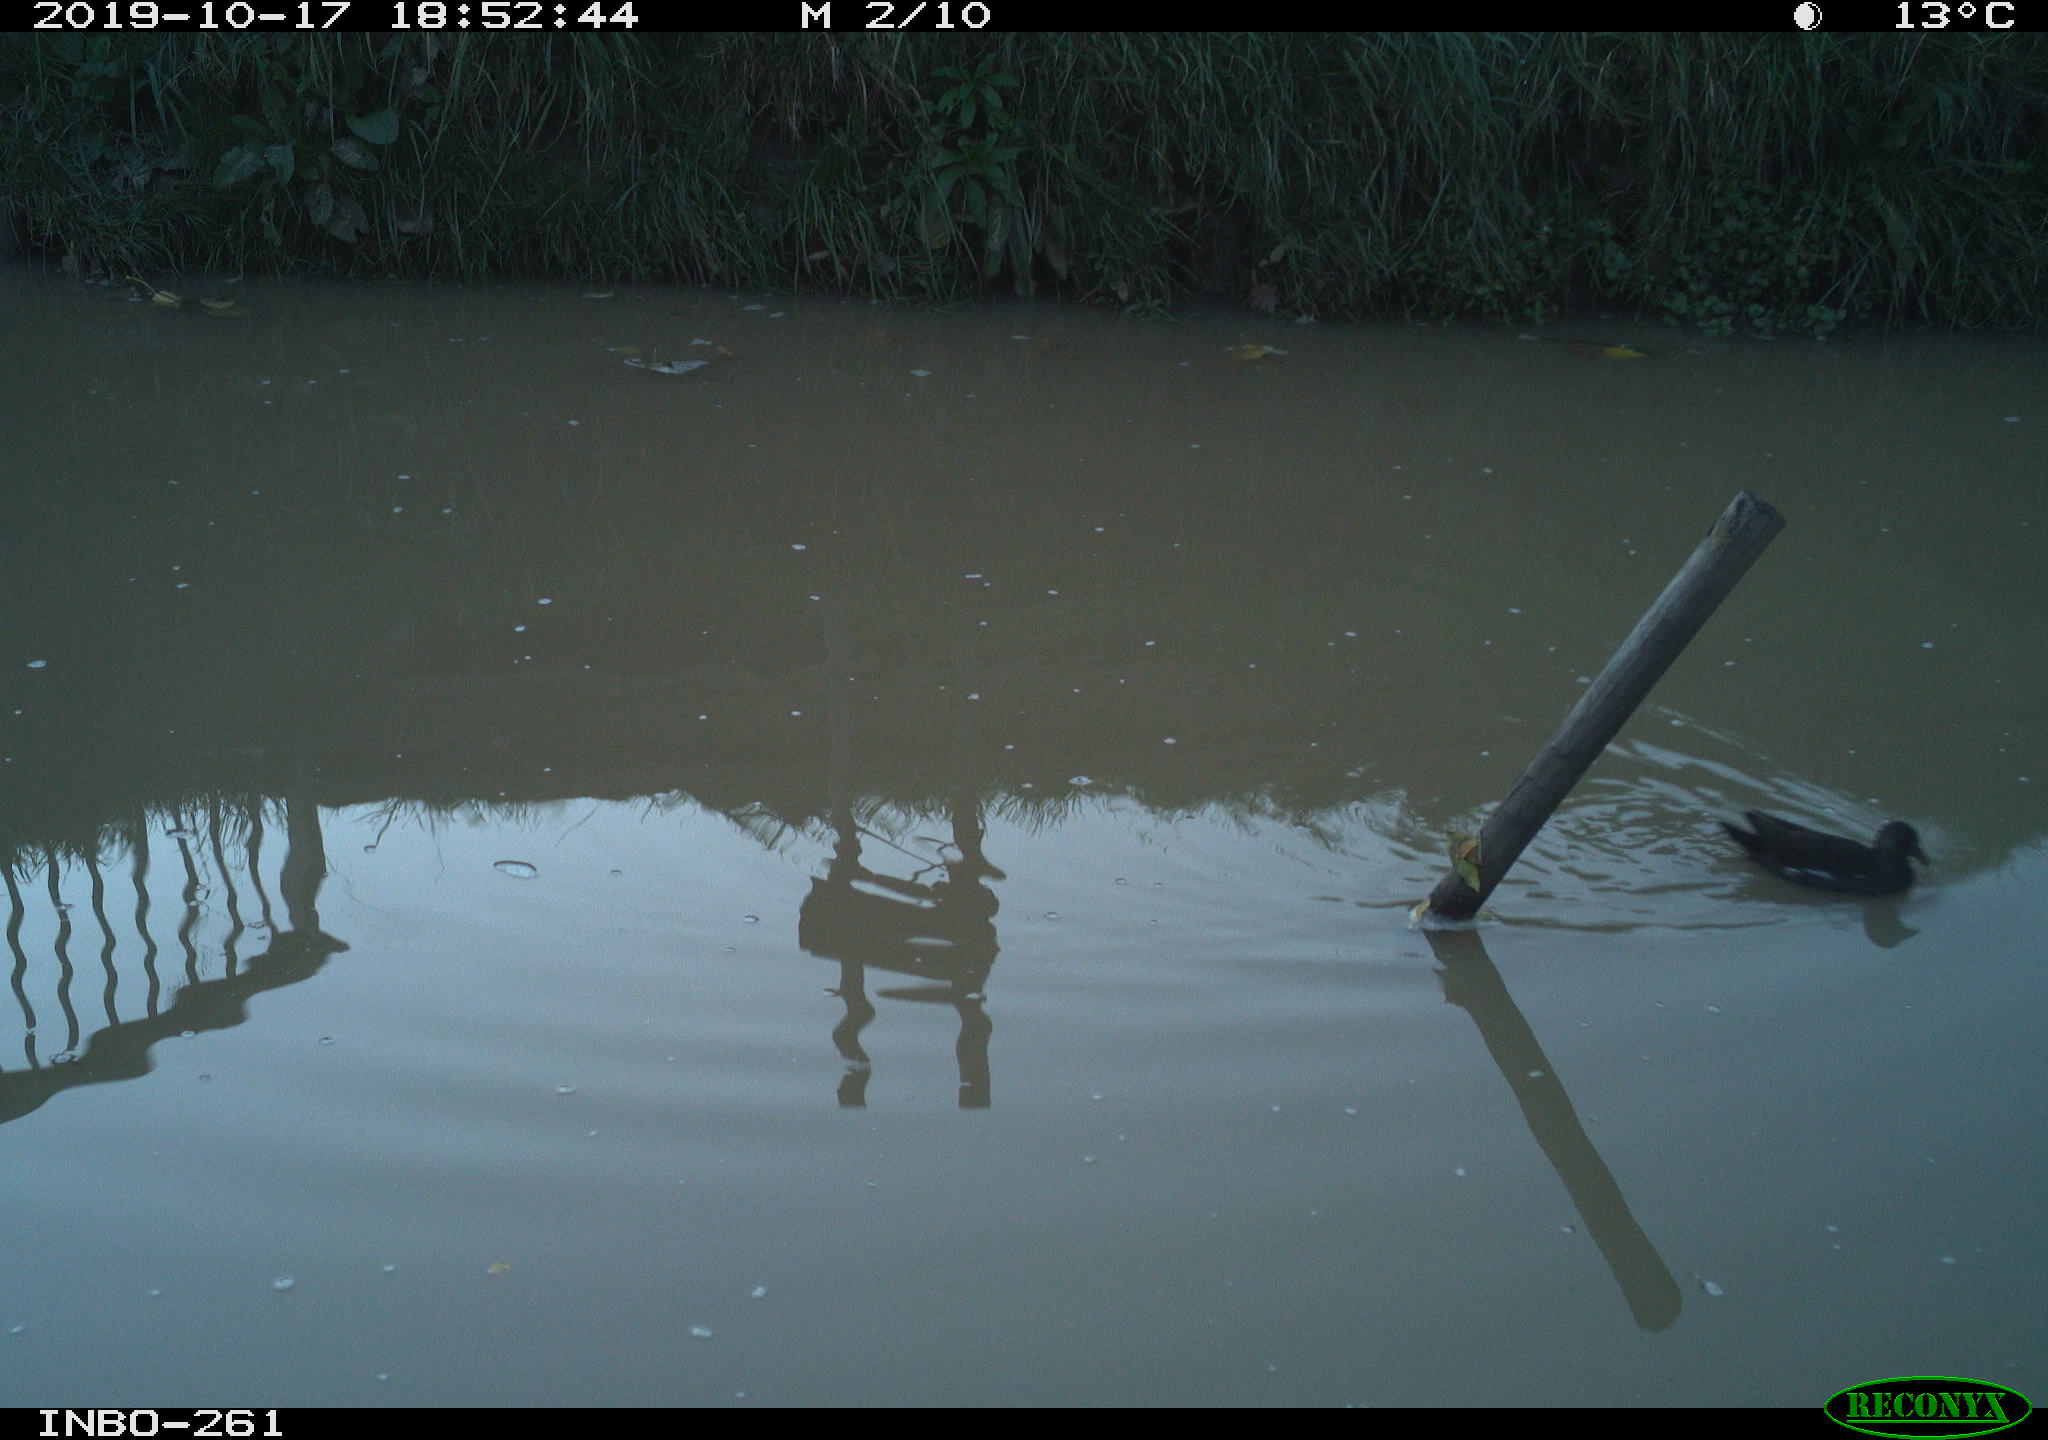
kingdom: Animalia
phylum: Chordata
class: Aves
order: Gruiformes
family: Rallidae
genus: Gallinula
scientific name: Gallinula chloropus
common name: Common moorhen
